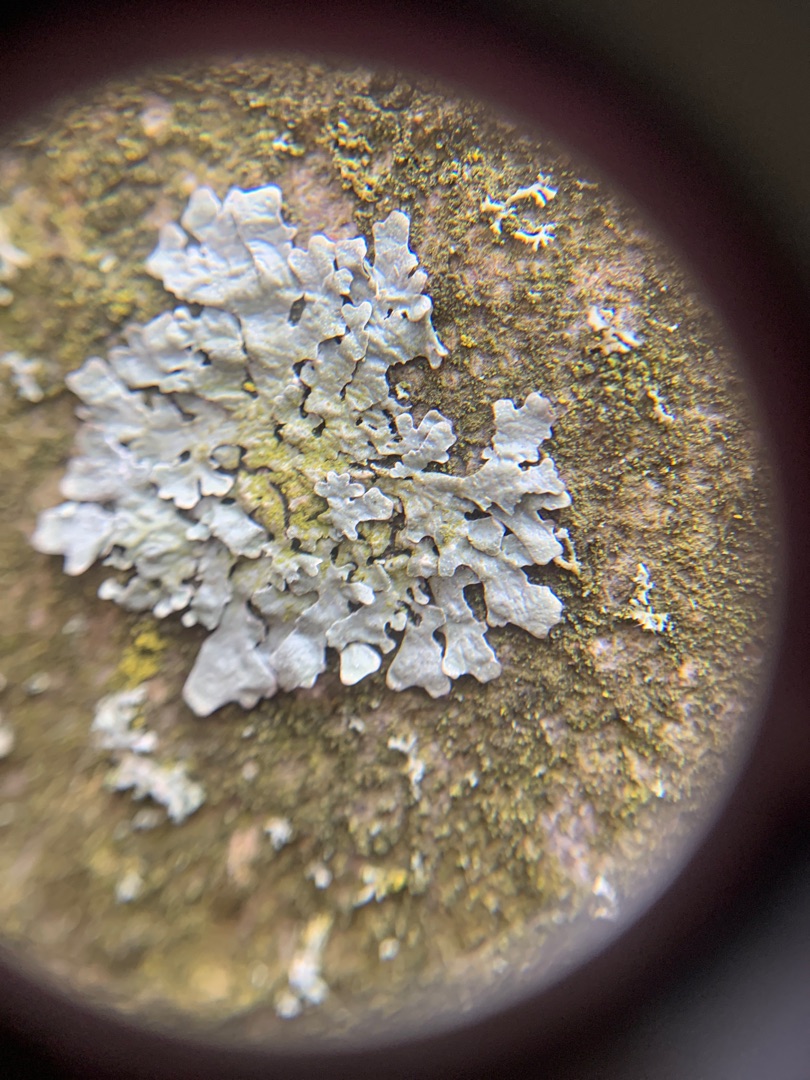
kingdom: Fungi
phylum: Ascomycota
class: Lecanoromycetes
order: Lecanorales
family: Parmeliaceae
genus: Parmelia
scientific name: Parmelia sulcata
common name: Rynket skållav
